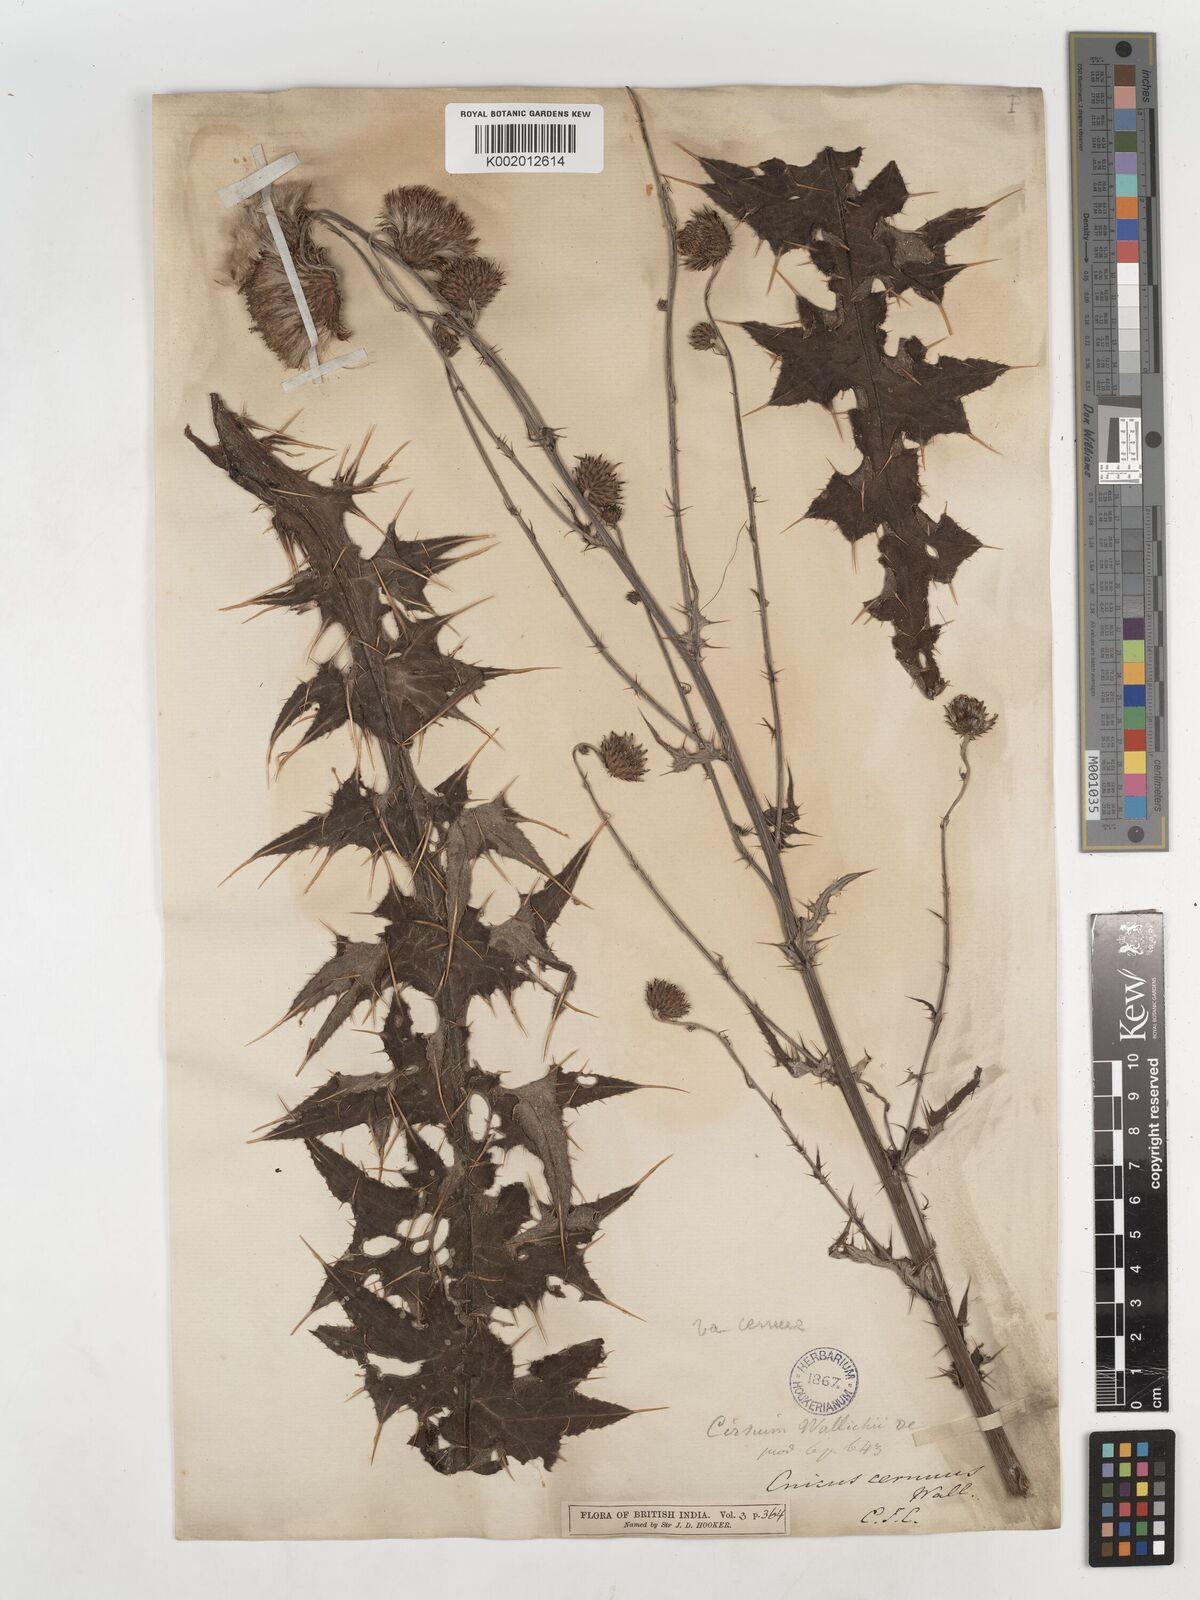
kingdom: Plantae
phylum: Tracheophyta
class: Magnoliopsida
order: Asterales
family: Asteraceae
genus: Cirsium
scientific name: Cirsium wallichii
